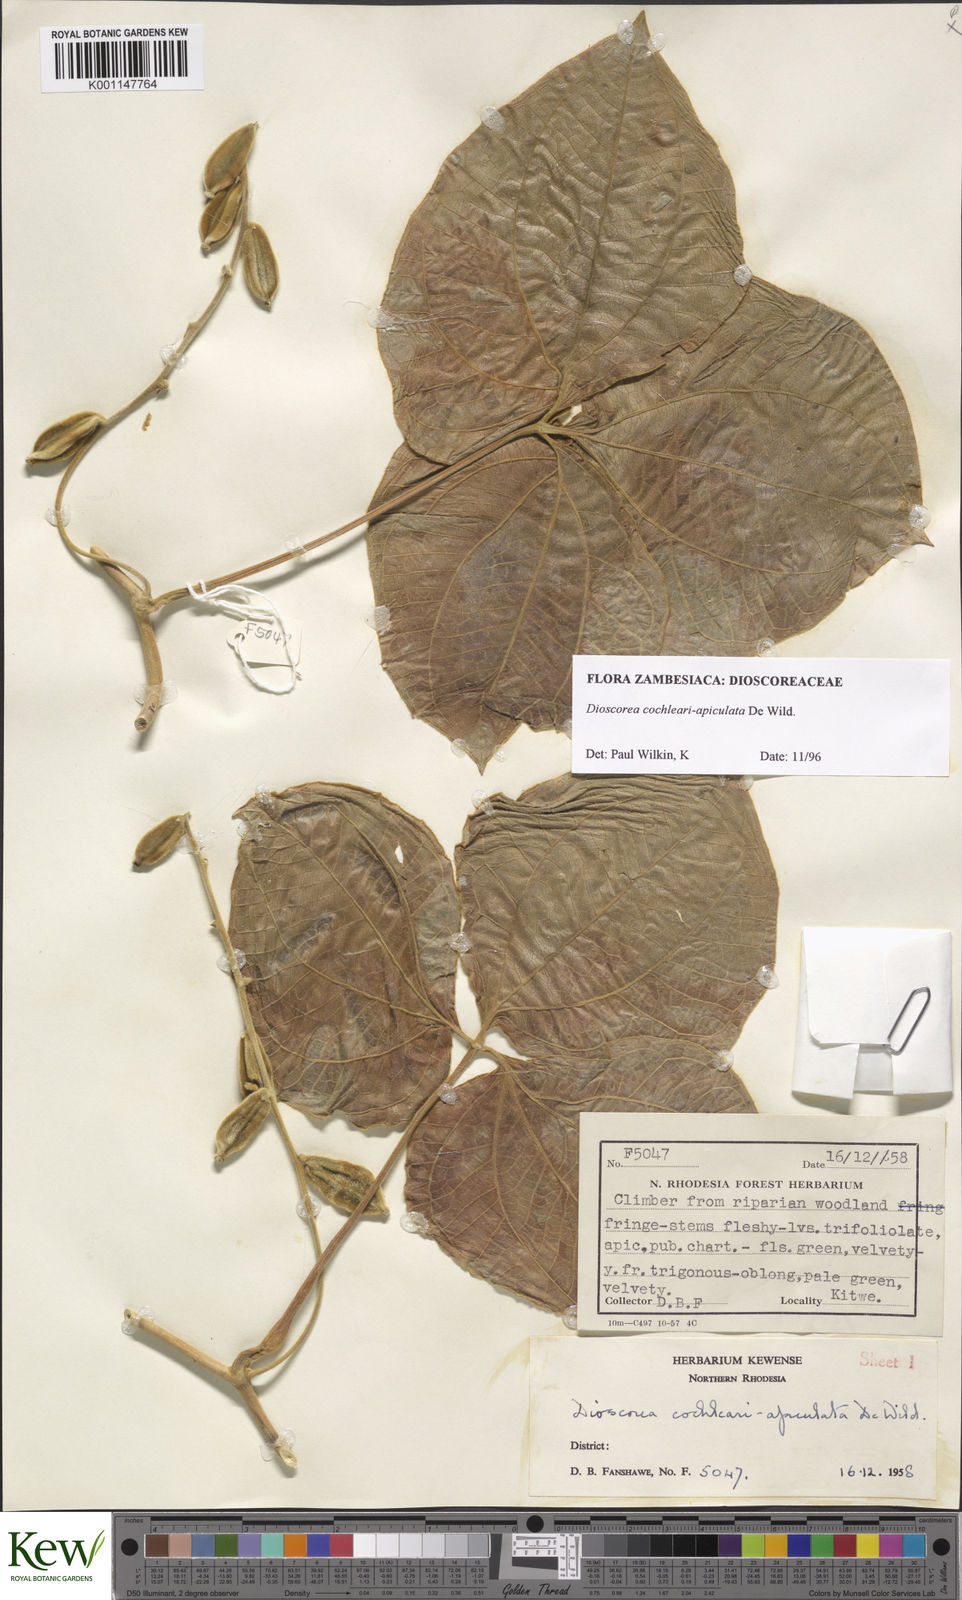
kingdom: Plantae
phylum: Tracheophyta
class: Liliopsida
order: Dioscoreales
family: Dioscoreaceae
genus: Dioscorea
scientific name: Dioscorea cochleariapiculata
